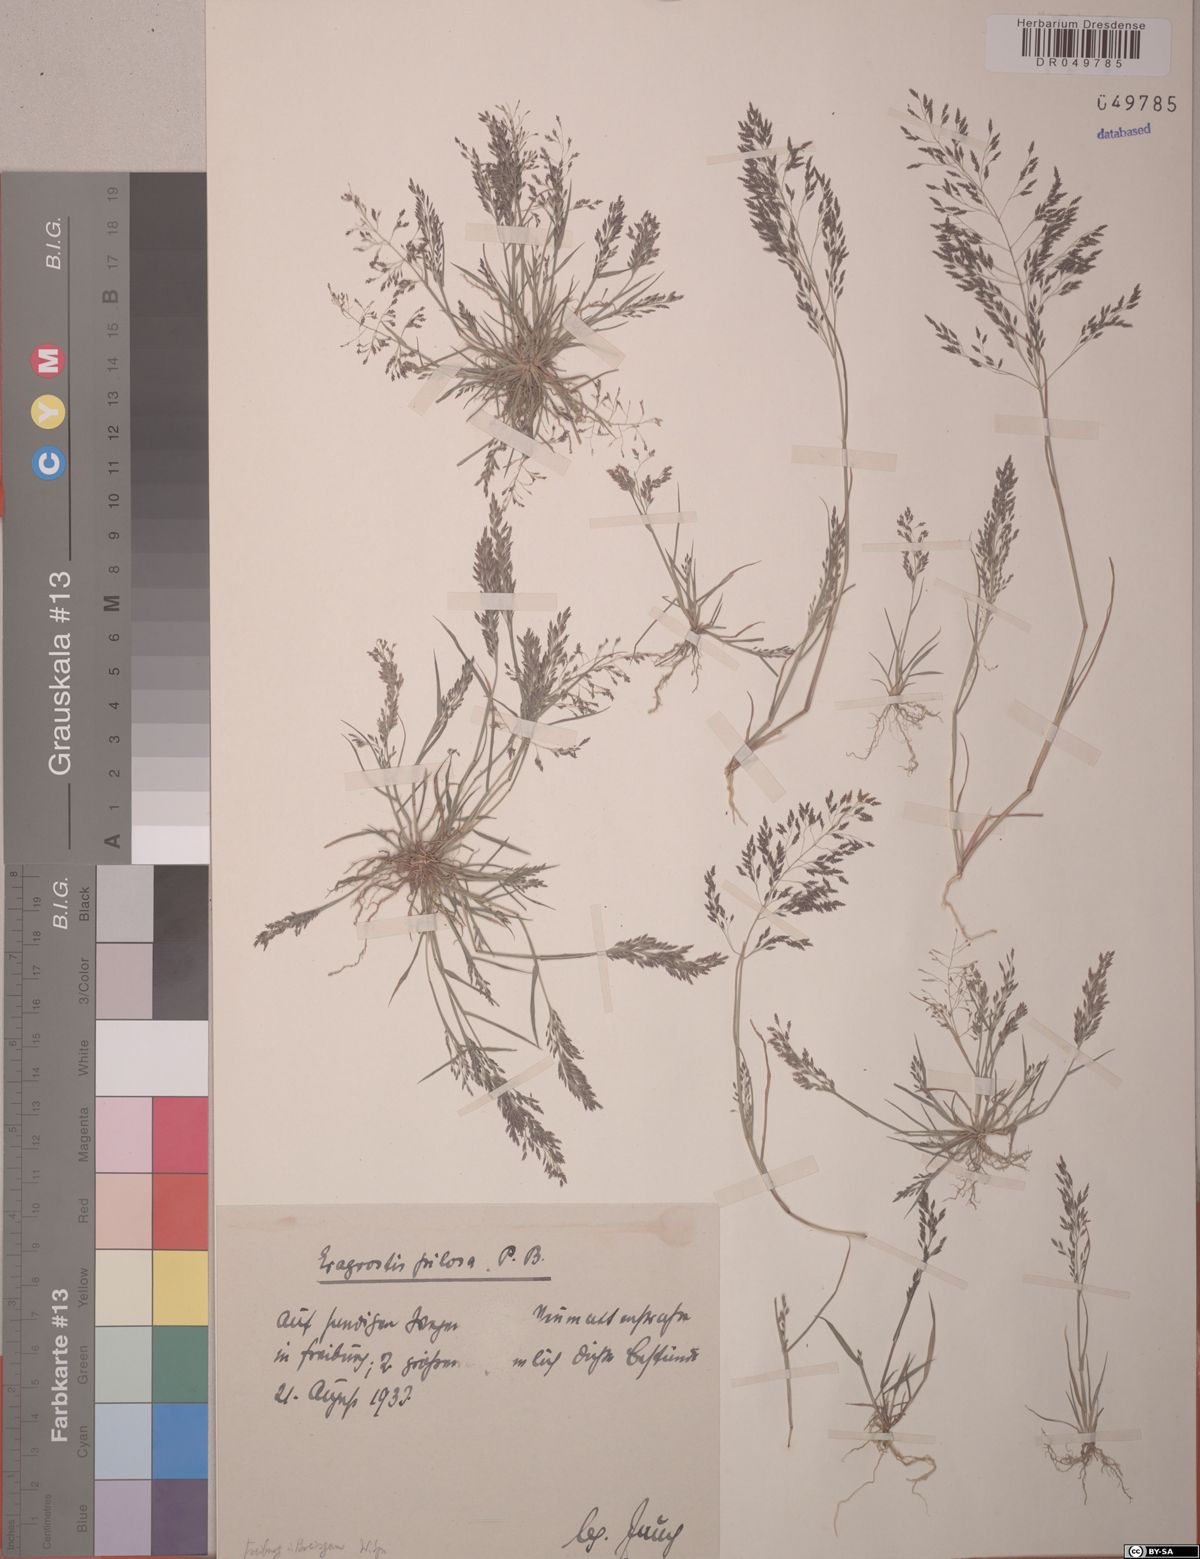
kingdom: Plantae
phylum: Tracheophyta
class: Liliopsida
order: Poales
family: Poaceae
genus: Eragrostis
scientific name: Eragrostis pilosa
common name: Indian lovegrass
